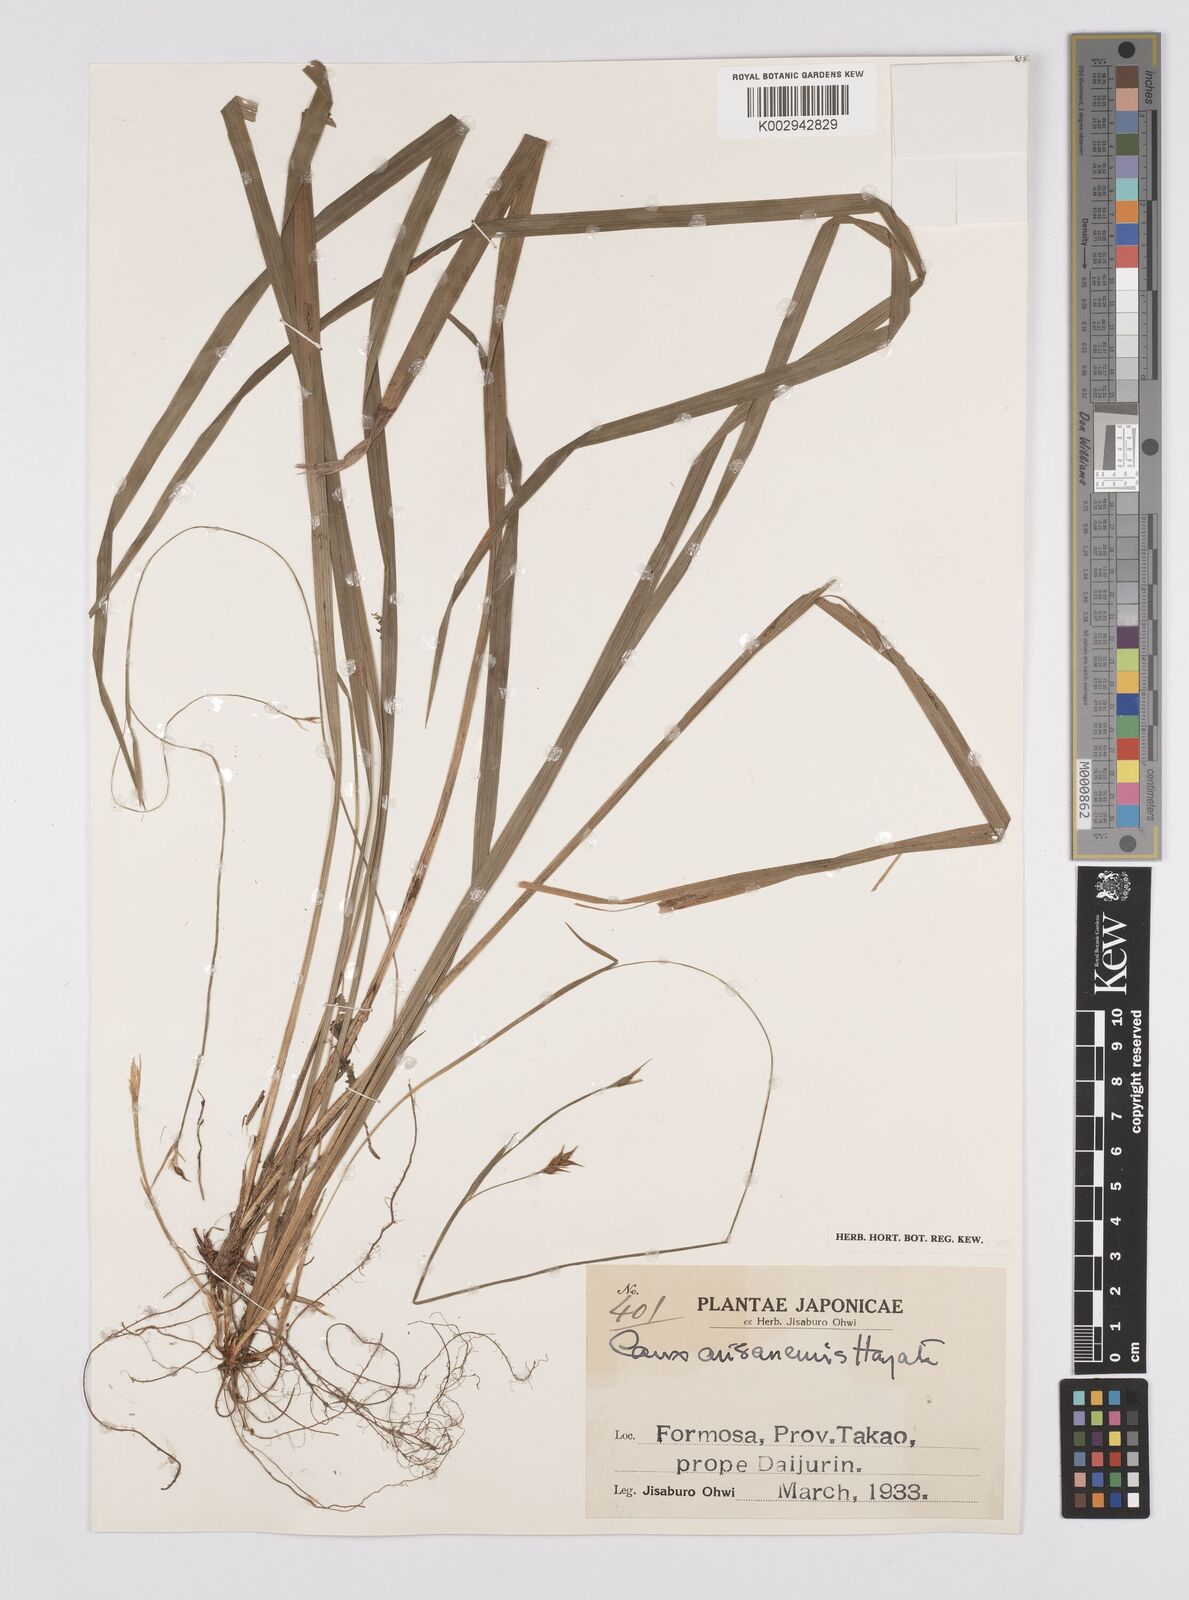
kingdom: Plantae
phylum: Tracheophyta
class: Liliopsida
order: Poales
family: Cyperaceae
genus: Carex
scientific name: Carex arisanensis
